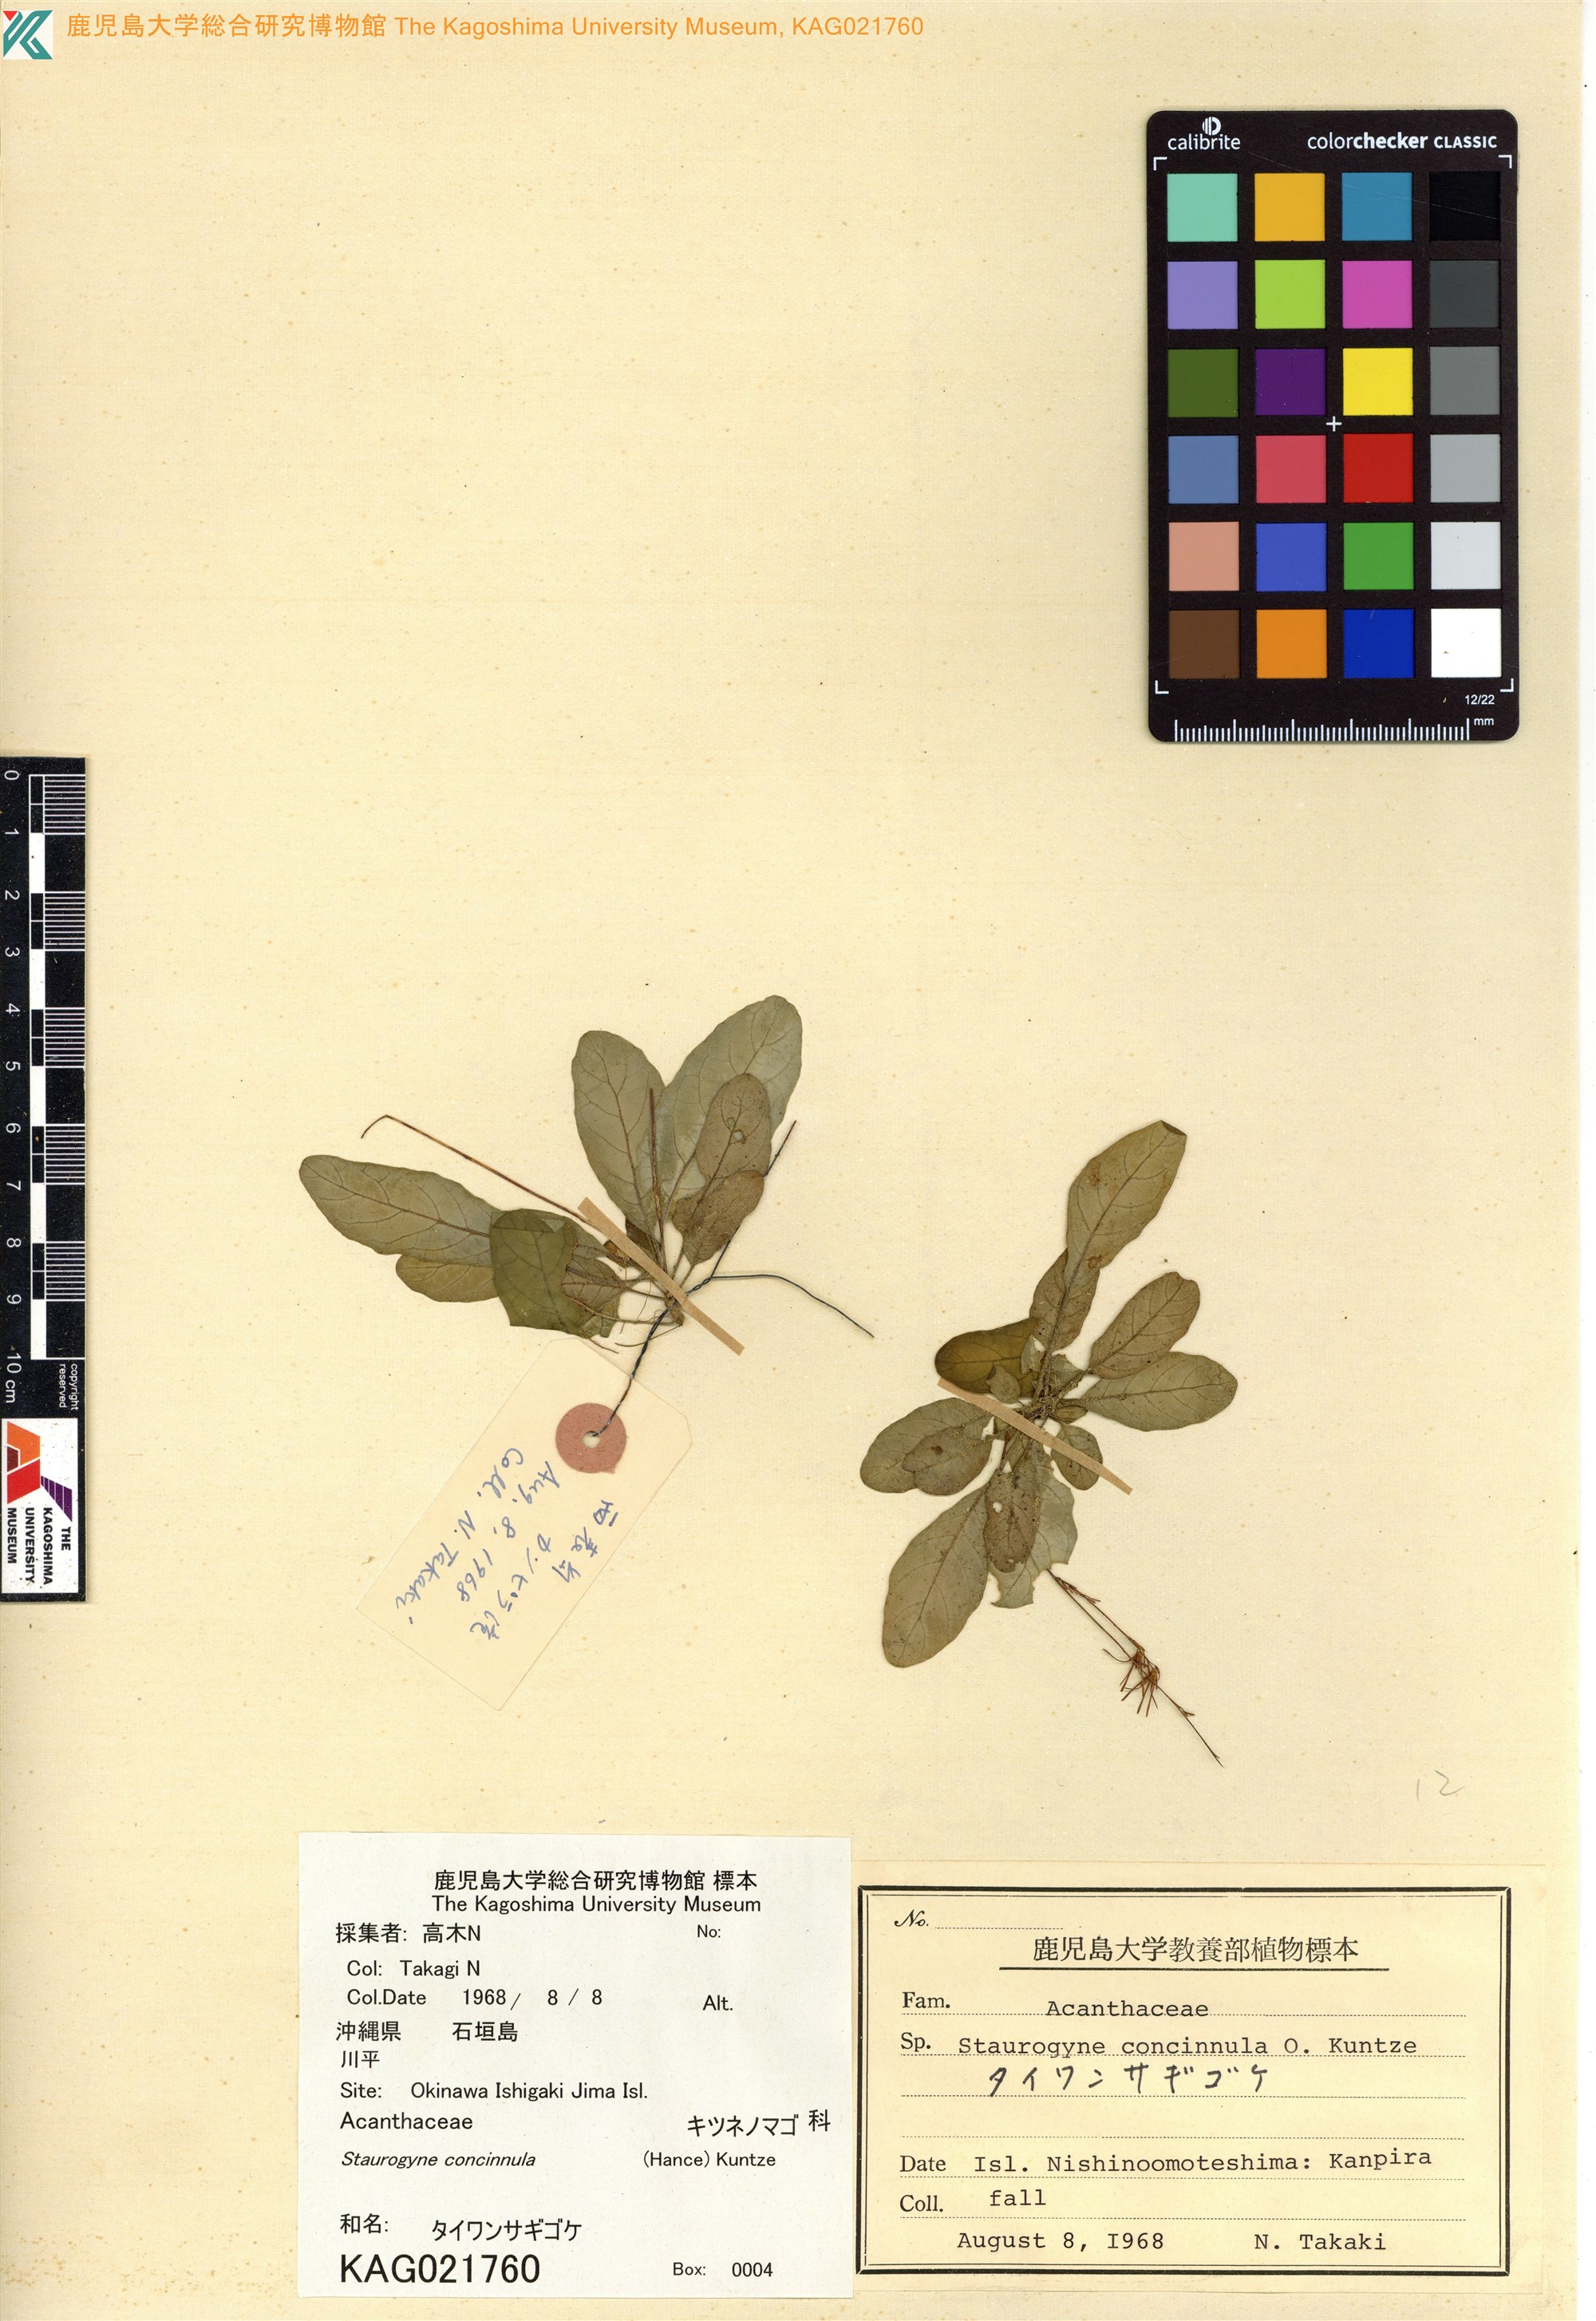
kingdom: Plantae
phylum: Tracheophyta
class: Magnoliopsida
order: Lamiales
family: Acanthaceae
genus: Staurogyne
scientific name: Staurogyne concinnula
